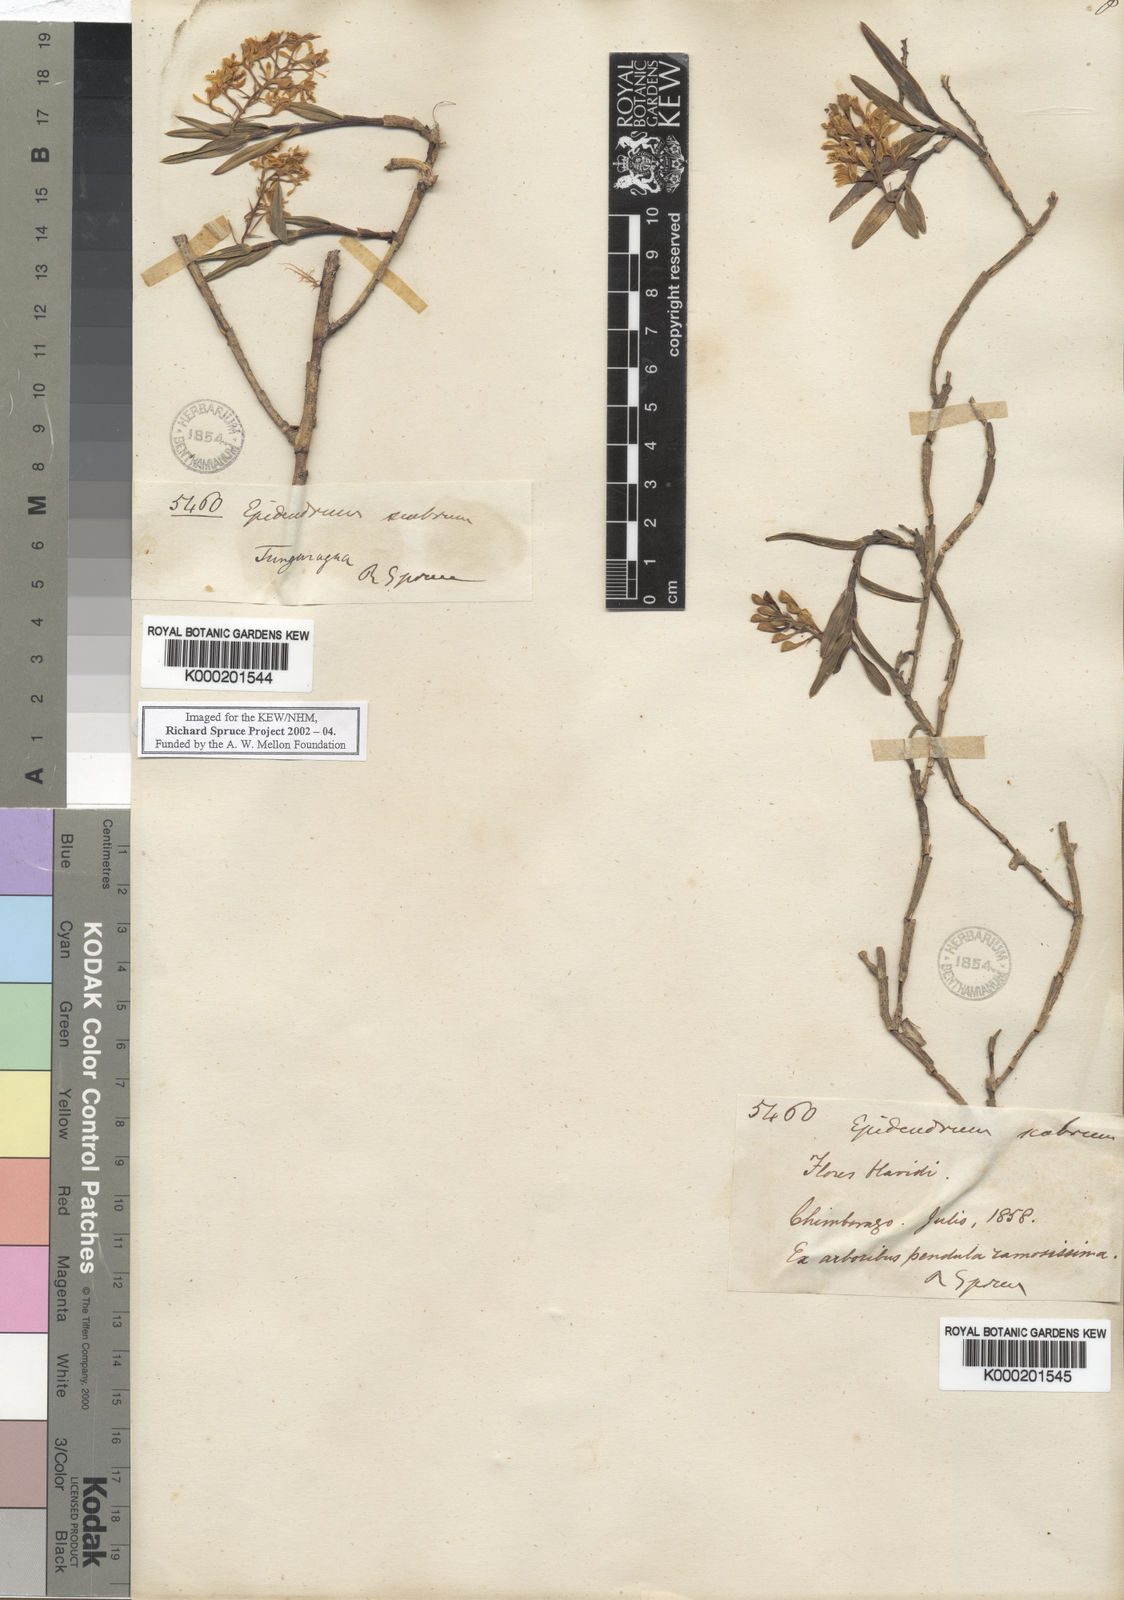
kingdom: Plantae
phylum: Tracheophyta
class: Liliopsida
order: Asparagales
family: Orchidaceae
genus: Epidendrum
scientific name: Epidendrum scabrum
